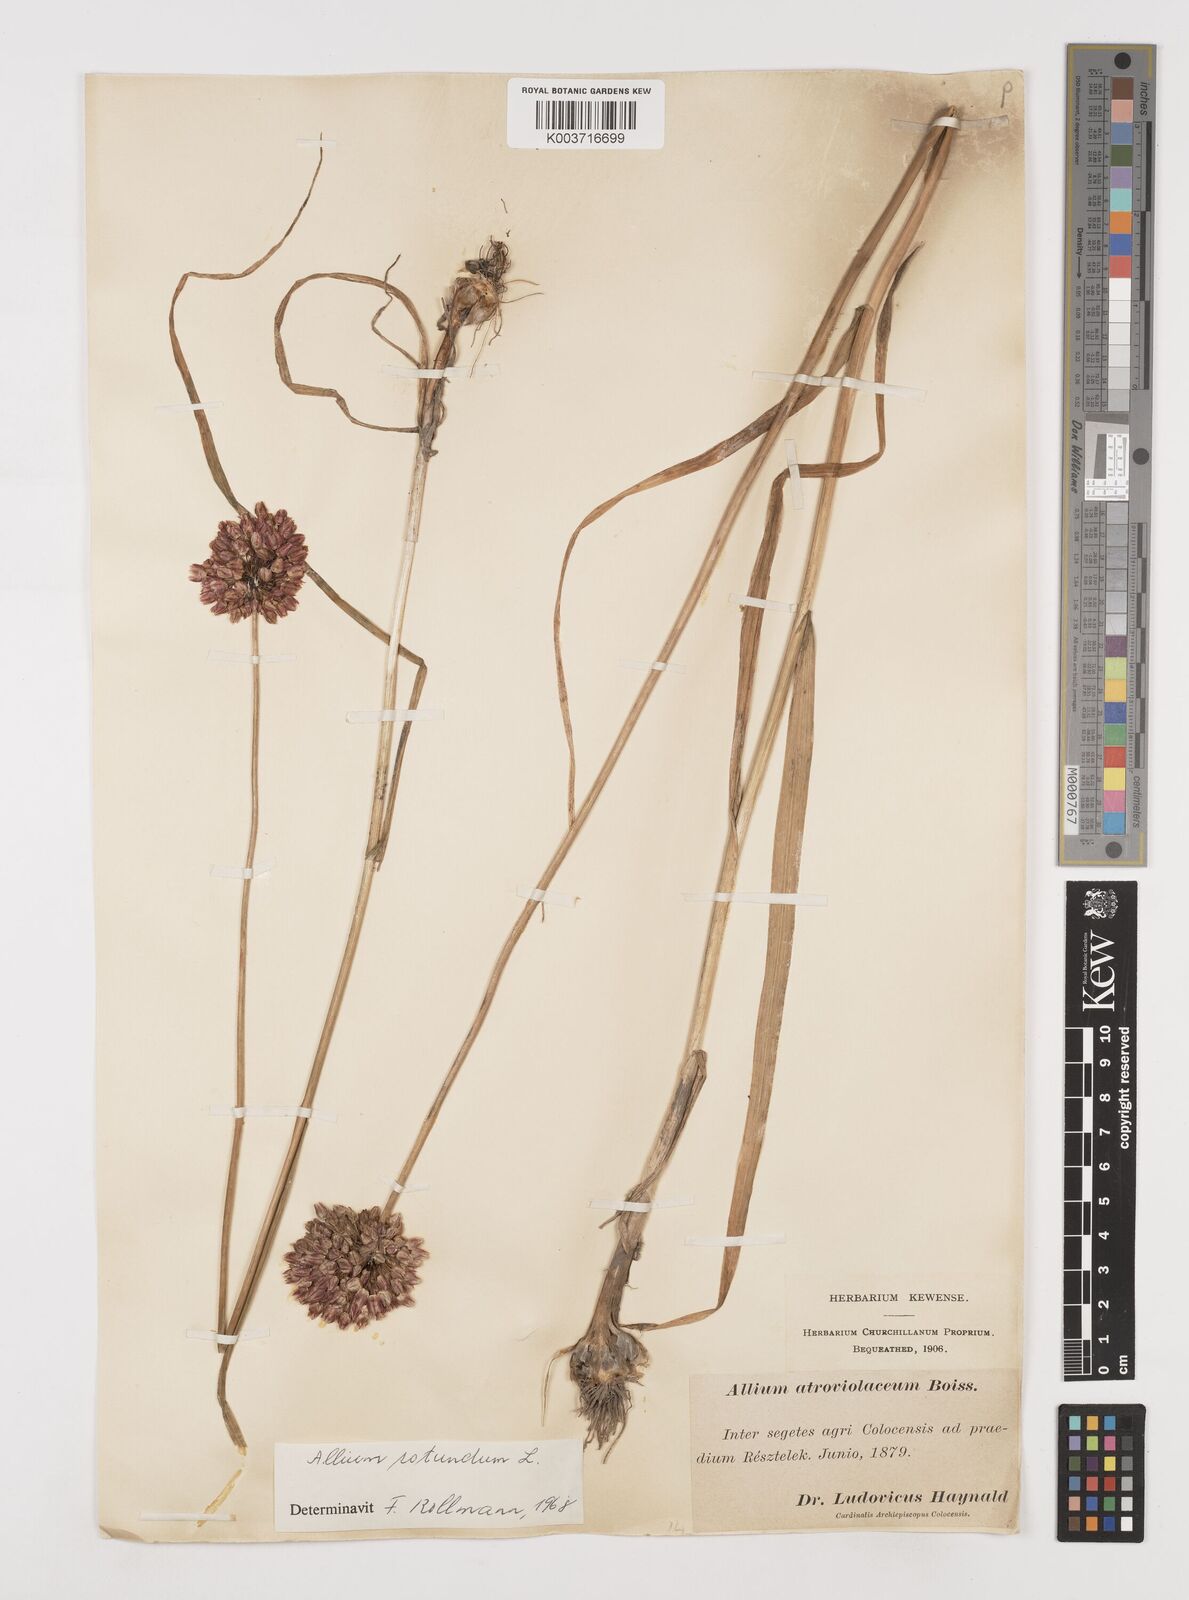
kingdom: Plantae
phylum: Tracheophyta
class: Liliopsida
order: Asparagales
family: Amaryllidaceae
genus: Allium
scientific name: Allium rotundum
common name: Sand leek
